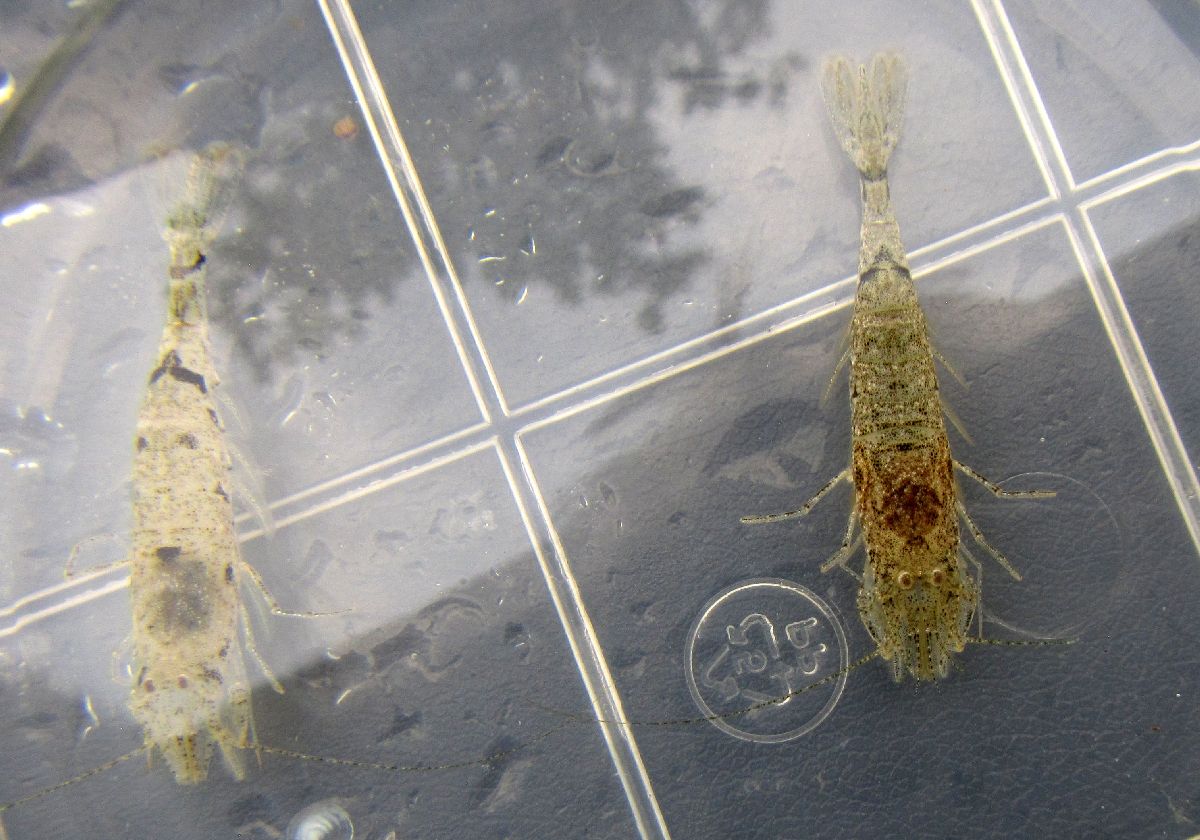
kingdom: Animalia
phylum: Arthropoda
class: Malacostraca
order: Decapoda
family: Crangonidae
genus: Crangon
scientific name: Crangon crangon
